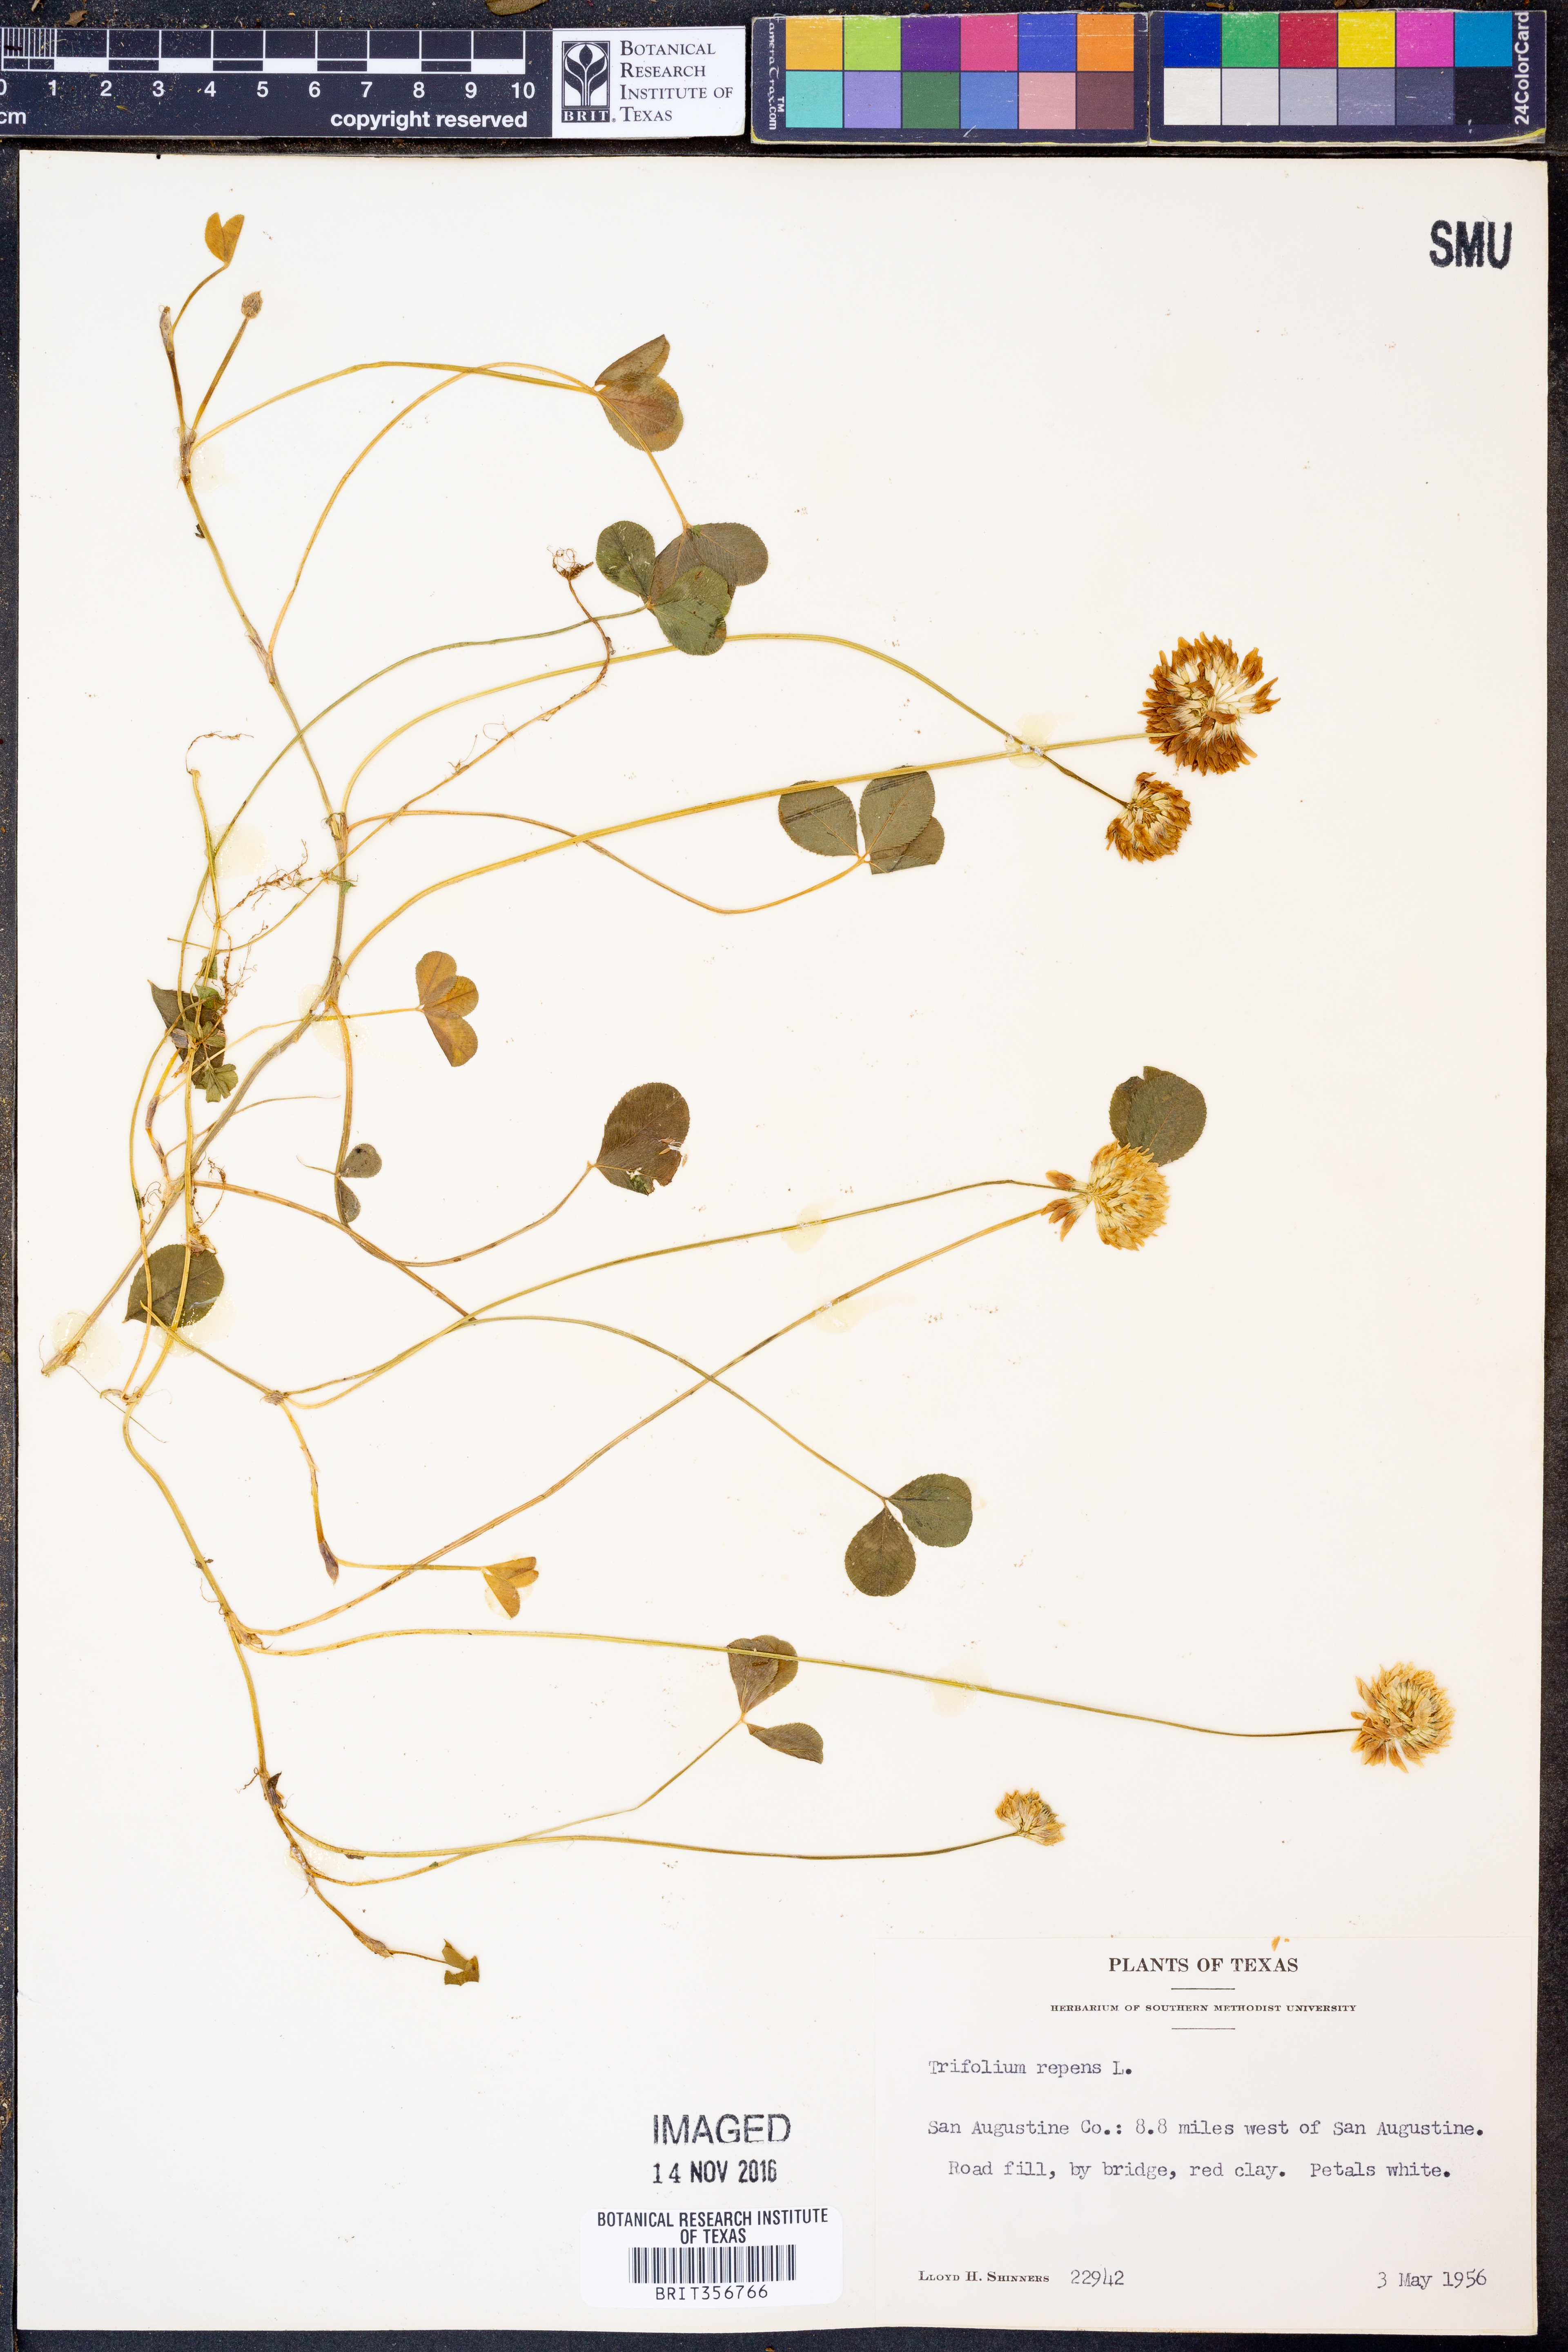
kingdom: Plantae
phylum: Tracheophyta
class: Magnoliopsida
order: Fabales
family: Fabaceae
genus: Trifolium
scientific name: Trifolium repens
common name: White clover
